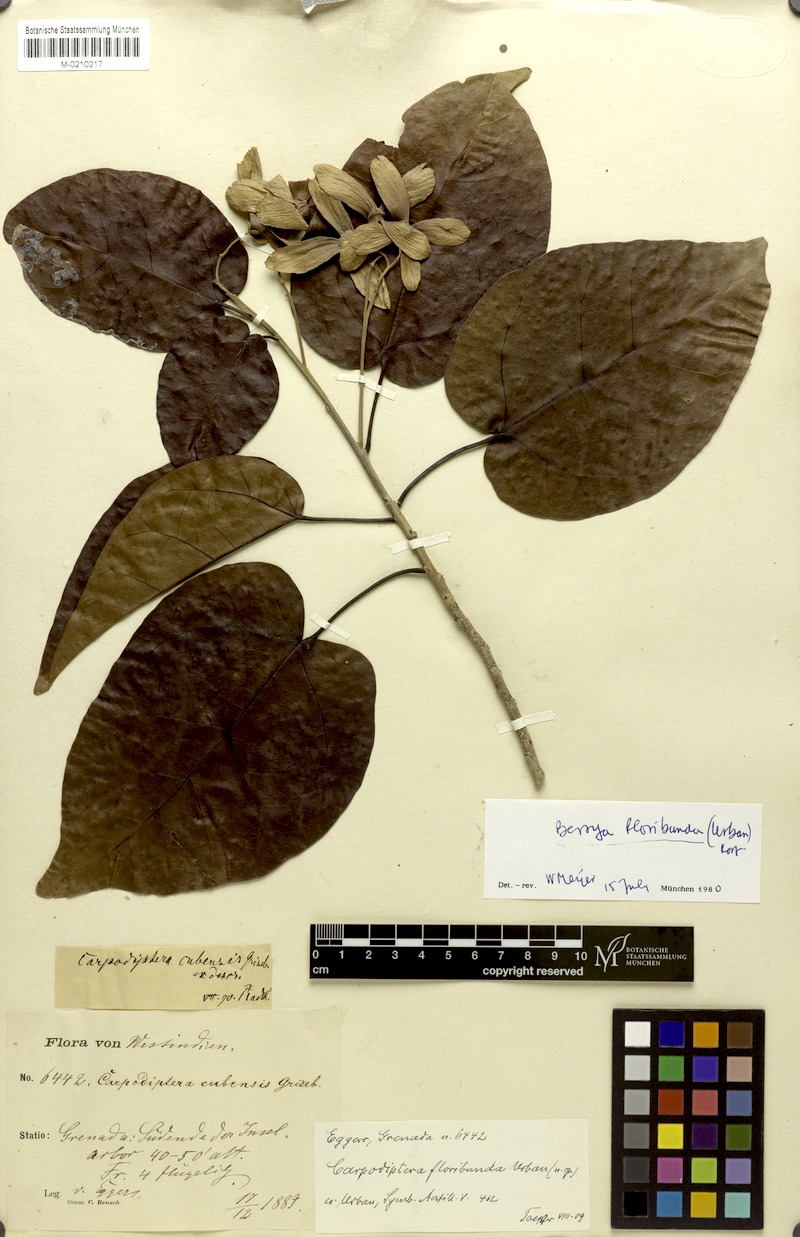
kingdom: Plantae
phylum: Tracheophyta
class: Magnoliopsida
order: Malvales
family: Malvaceae
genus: Berrya
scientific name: Berrya cubensis
